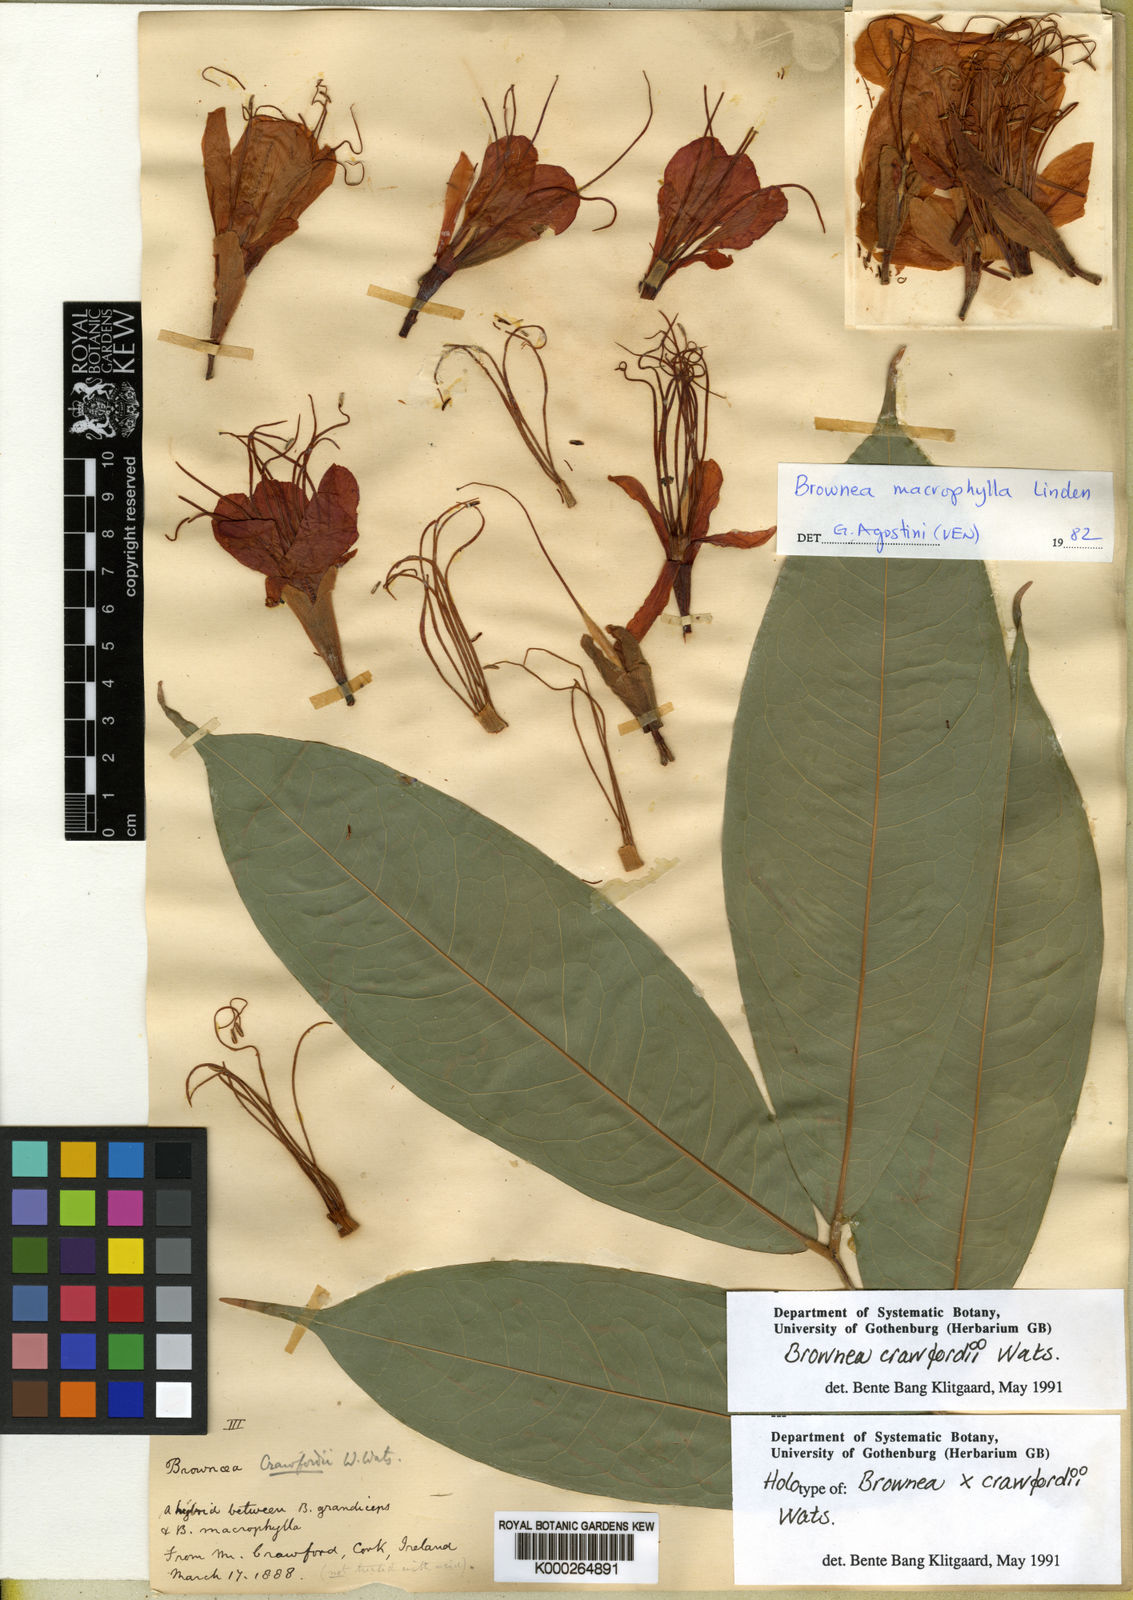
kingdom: Plantae
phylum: Tracheophyta
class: Magnoliopsida
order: Fabales
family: Fabaceae
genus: Brownea
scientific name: Brownea
